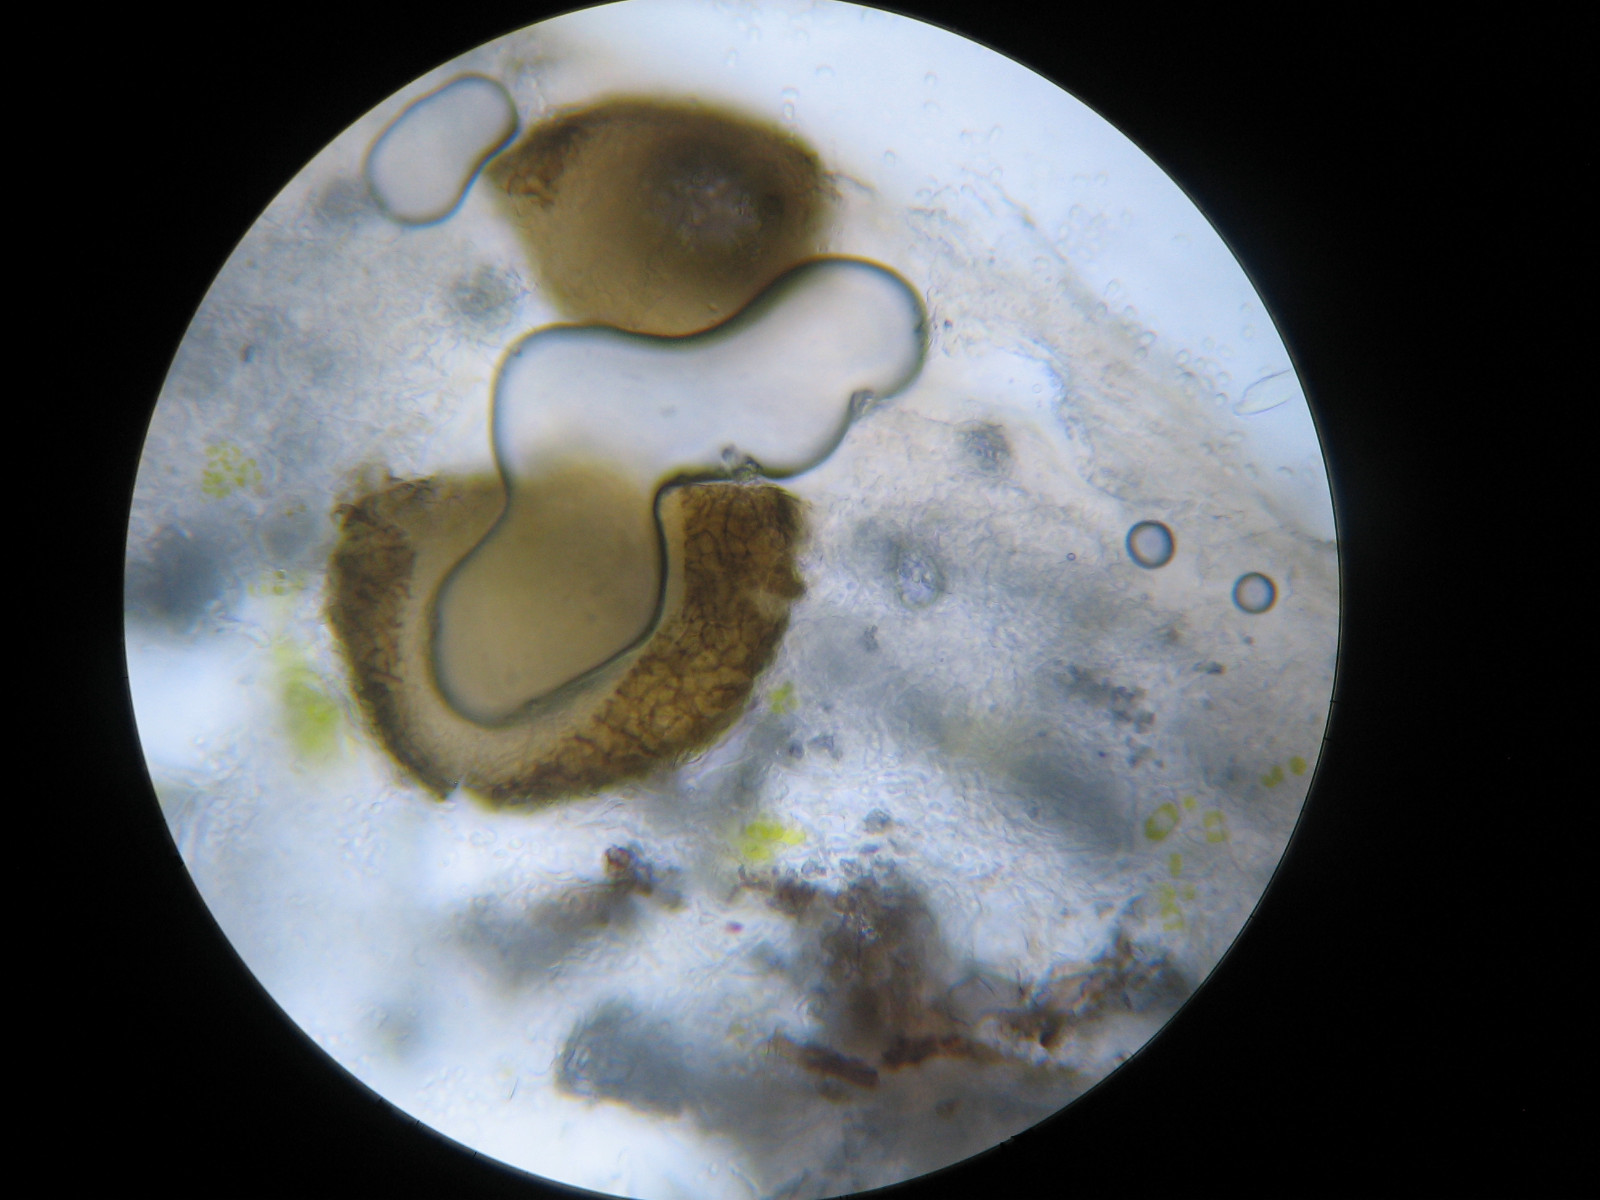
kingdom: Fungi
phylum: Ascomycota
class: Dothideomycetes
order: Pleosporales
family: Phaeosphaeriaceae
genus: Didymocyrtis
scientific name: Didymocyrtis ramalinae
